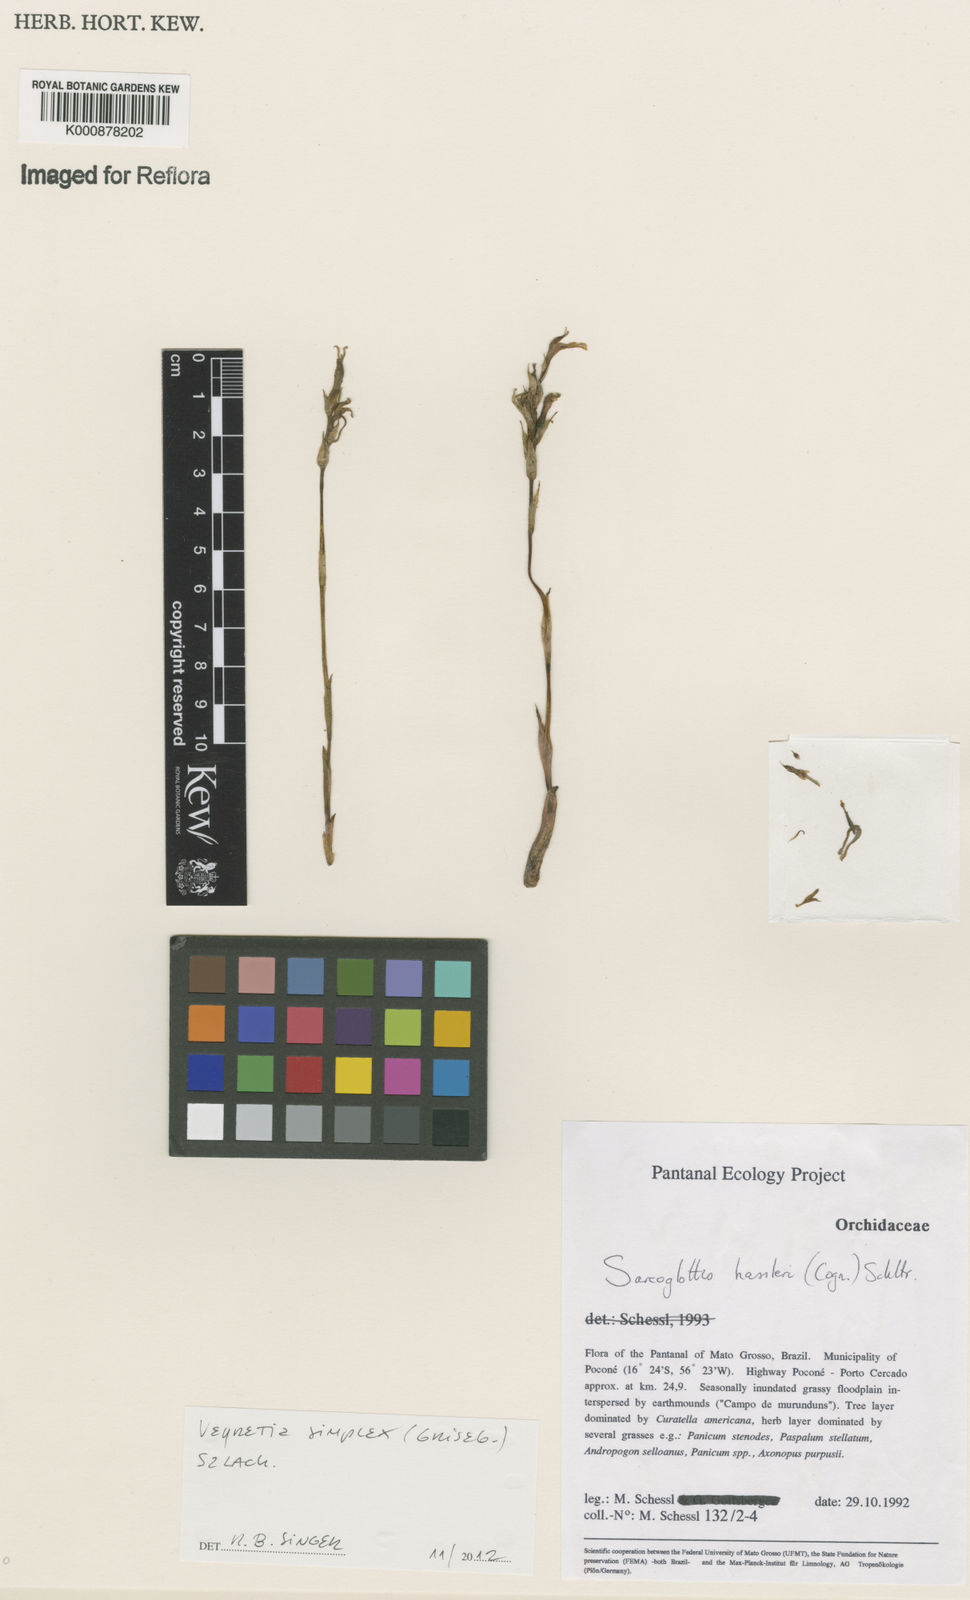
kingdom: Plantae
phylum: Tracheophyta
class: Liliopsida
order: Asparagales
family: Orchidaceae
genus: Veyretia
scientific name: Veyretia simplex
